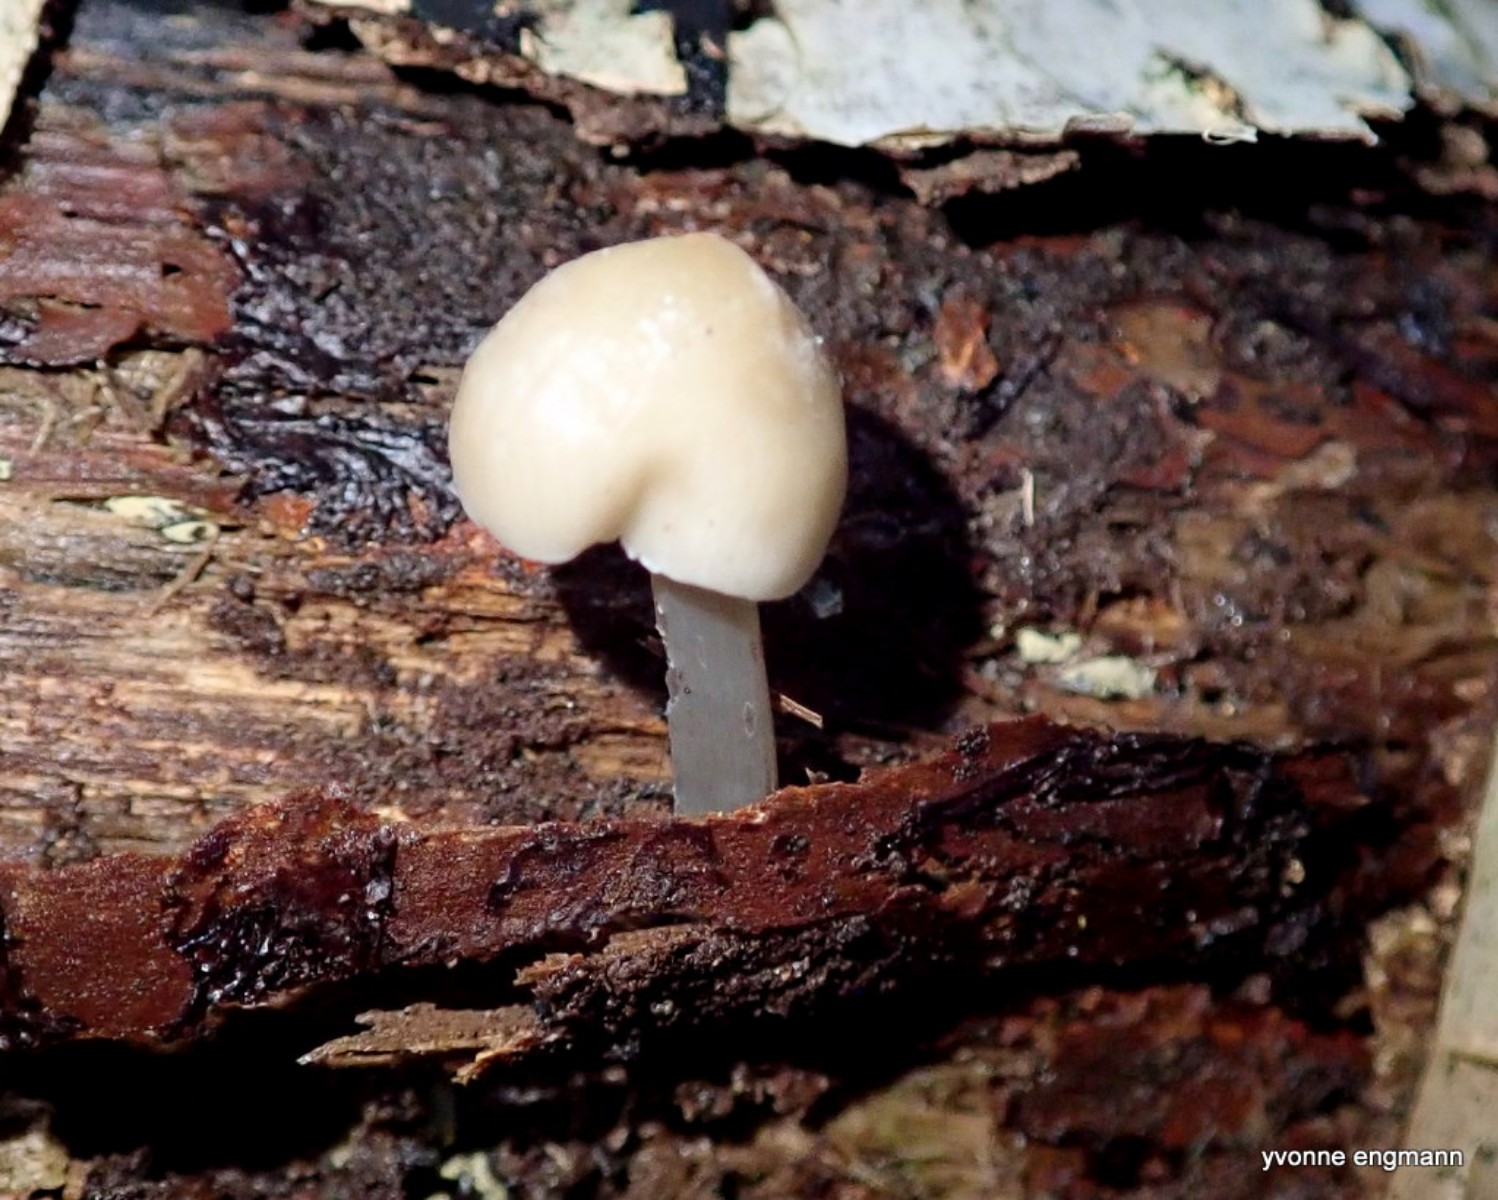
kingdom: Fungi
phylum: Basidiomycota
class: Agaricomycetes
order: Agaricales
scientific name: Agaricales
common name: champignonordenen
